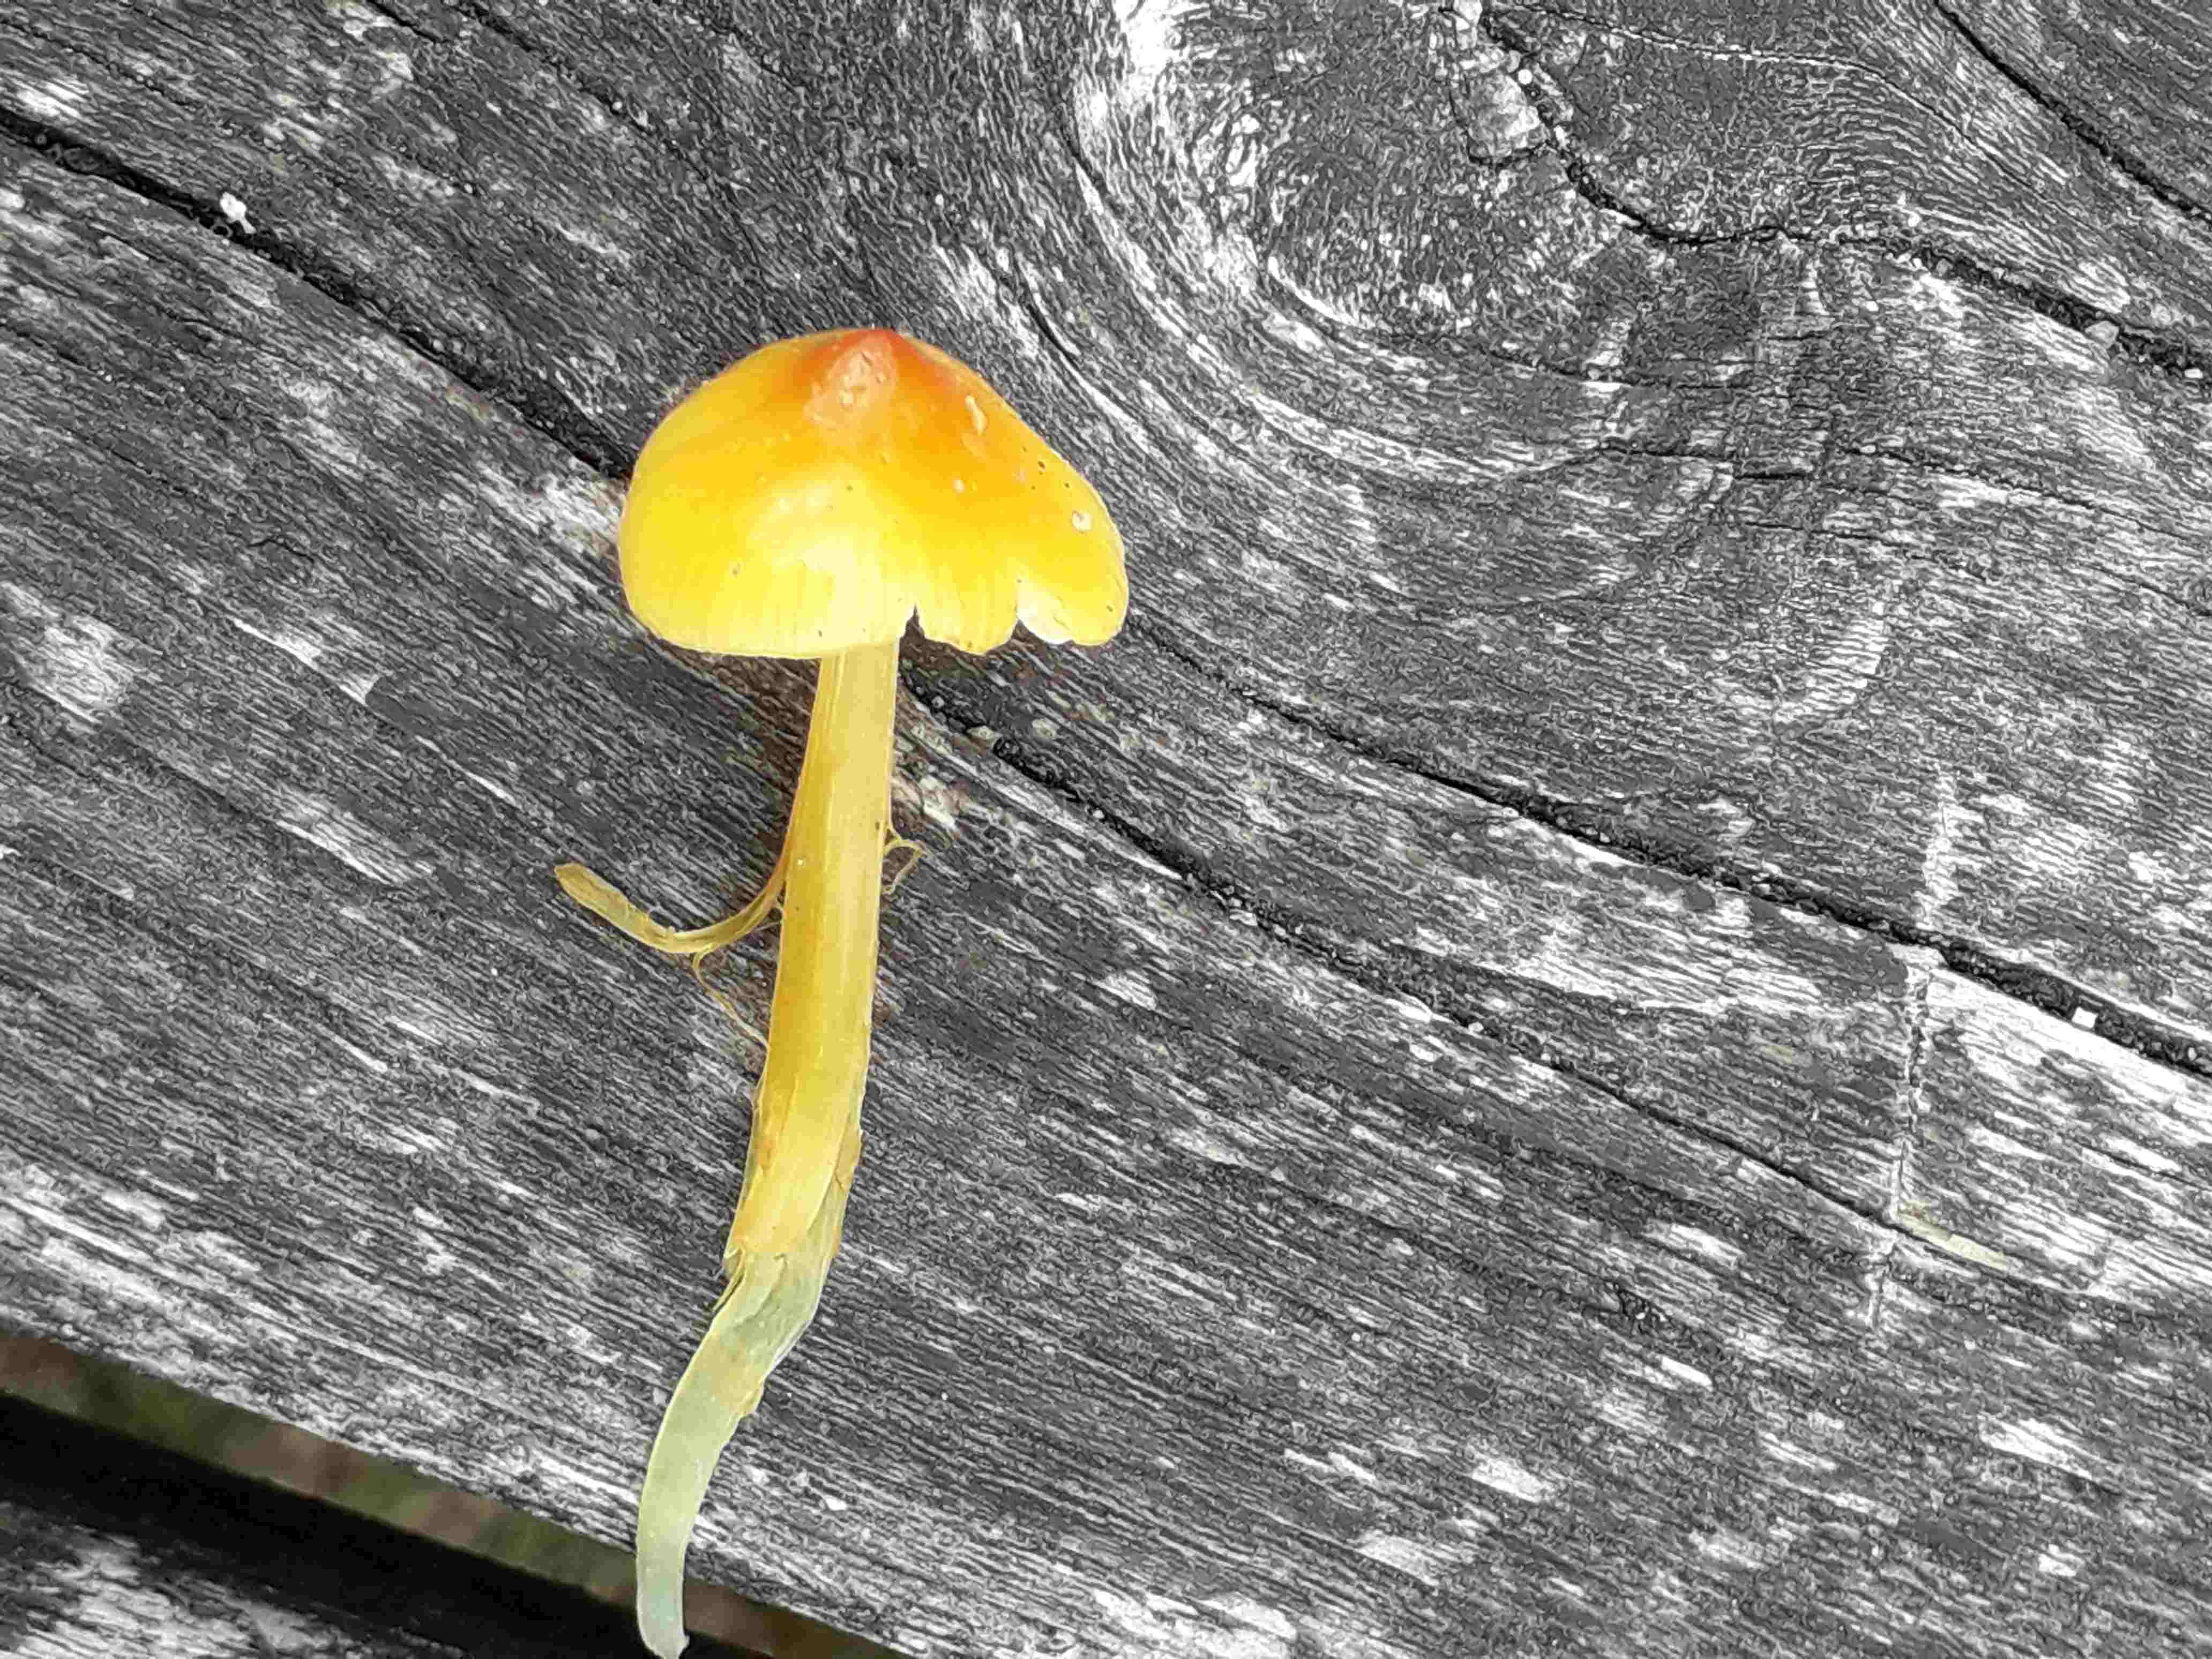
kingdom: Fungi
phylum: Basidiomycota
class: Agaricomycetes
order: Agaricales
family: Hygrophoraceae
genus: Hygrocybe
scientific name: Hygrocybe
